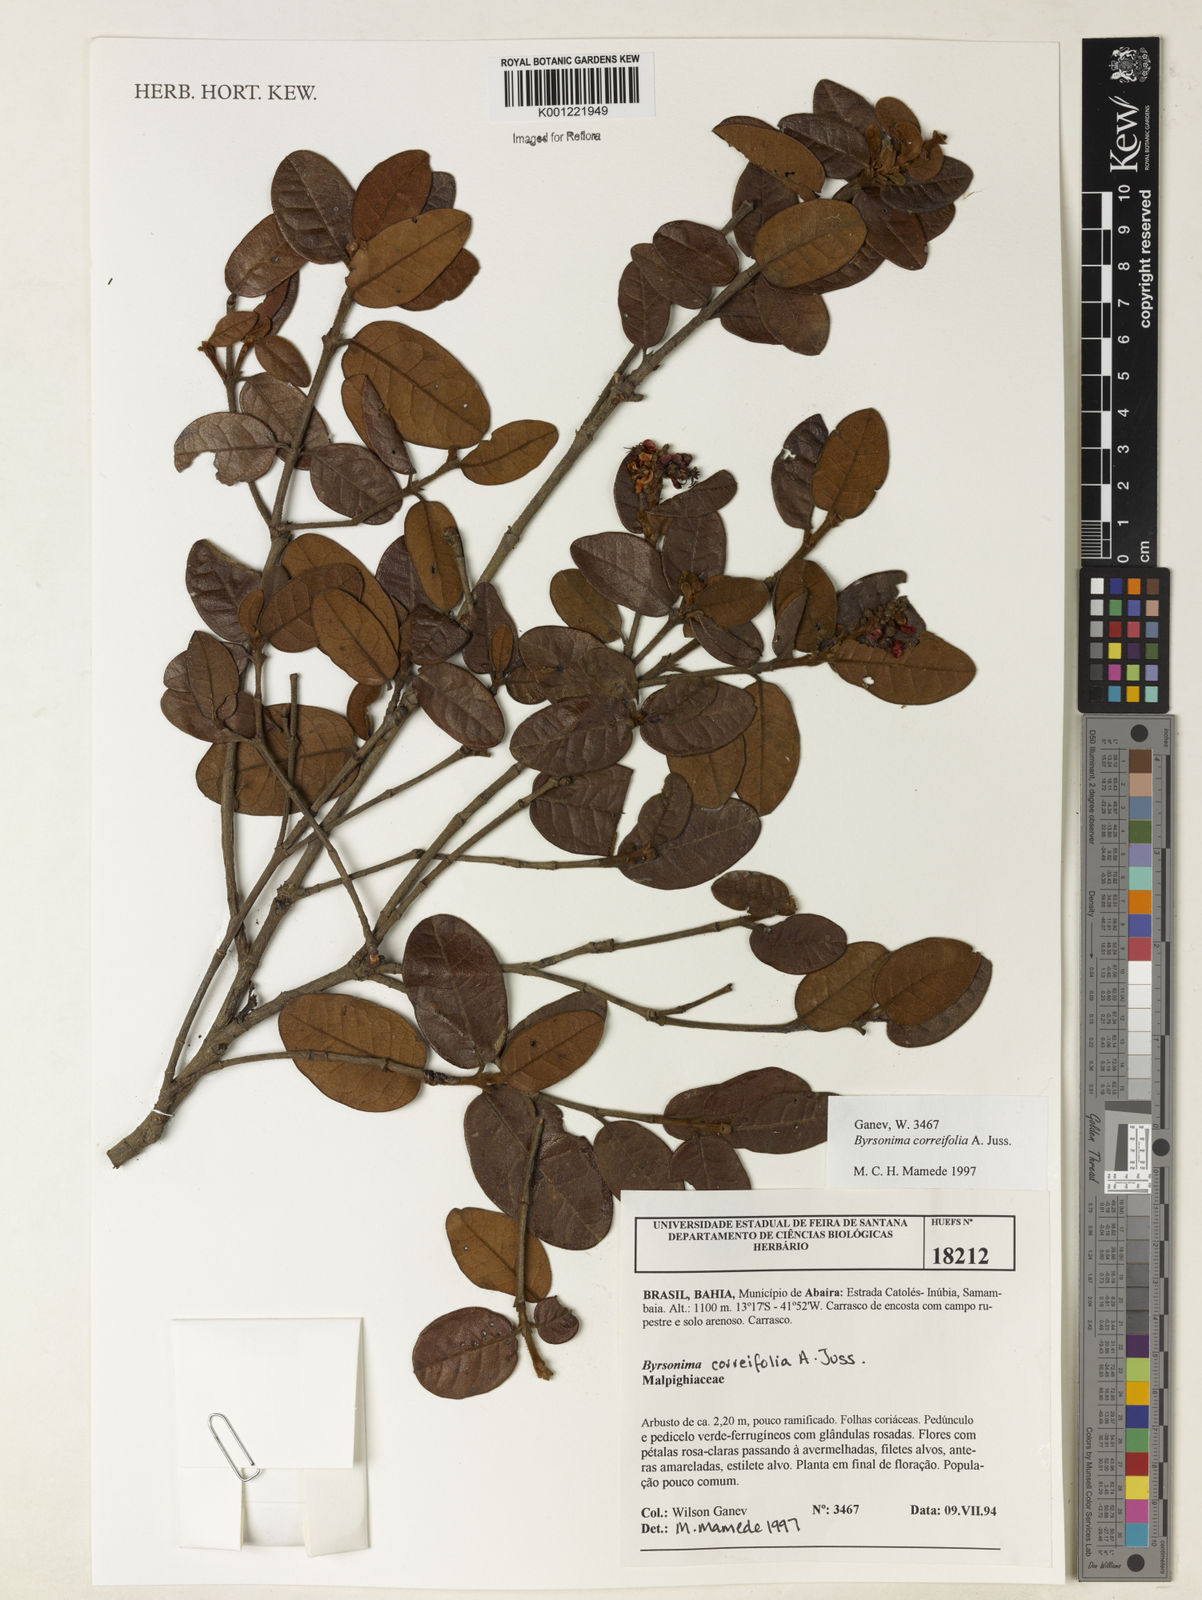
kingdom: Plantae
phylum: Tracheophyta
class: Magnoliopsida
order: Malpighiales
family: Malpighiaceae
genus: Byrsonima
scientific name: Byrsonima correifolia
